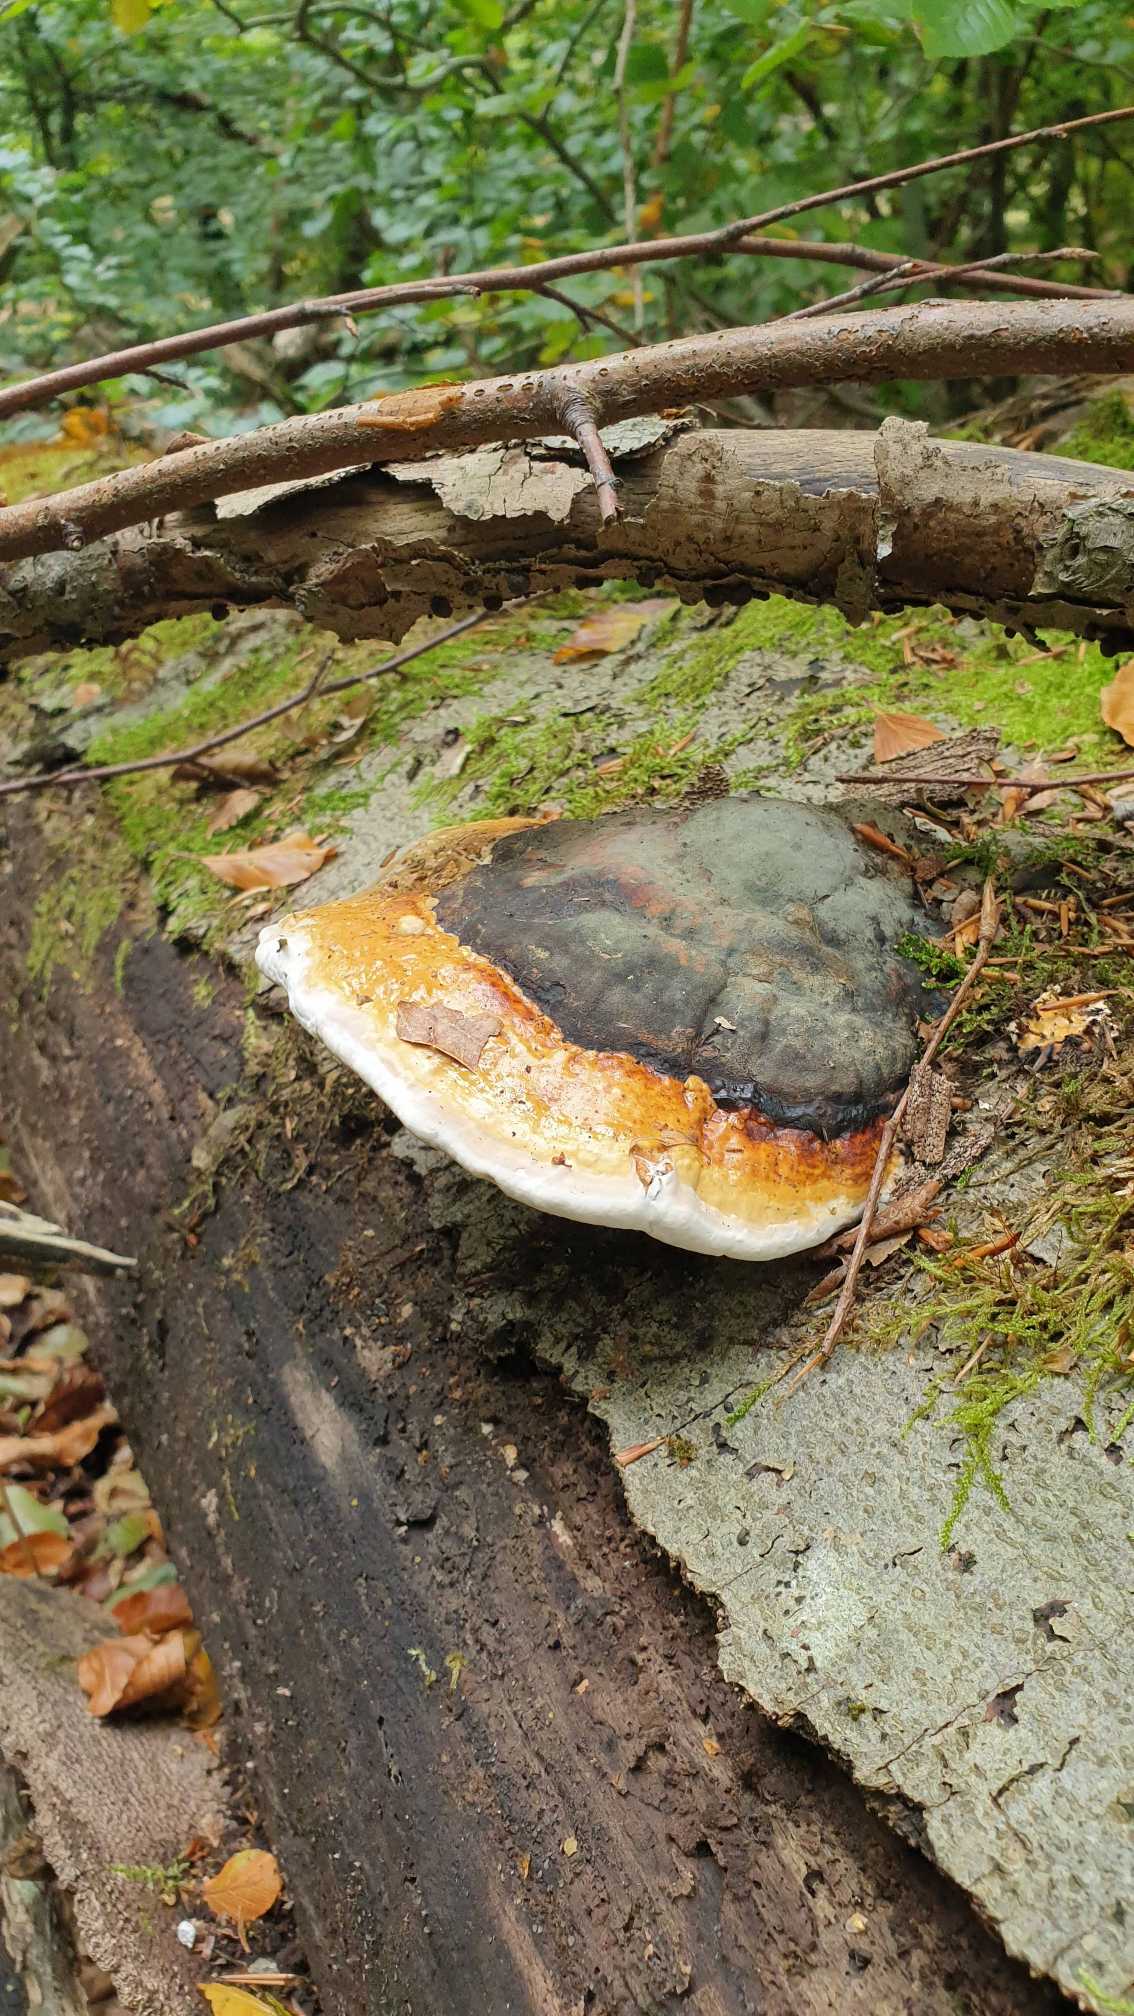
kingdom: Fungi
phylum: Basidiomycota
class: Agaricomycetes
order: Polyporales
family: Fomitopsidaceae
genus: Fomitopsis
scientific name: Fomitopsis pinicola
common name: Randbæltet hovporesvamp
